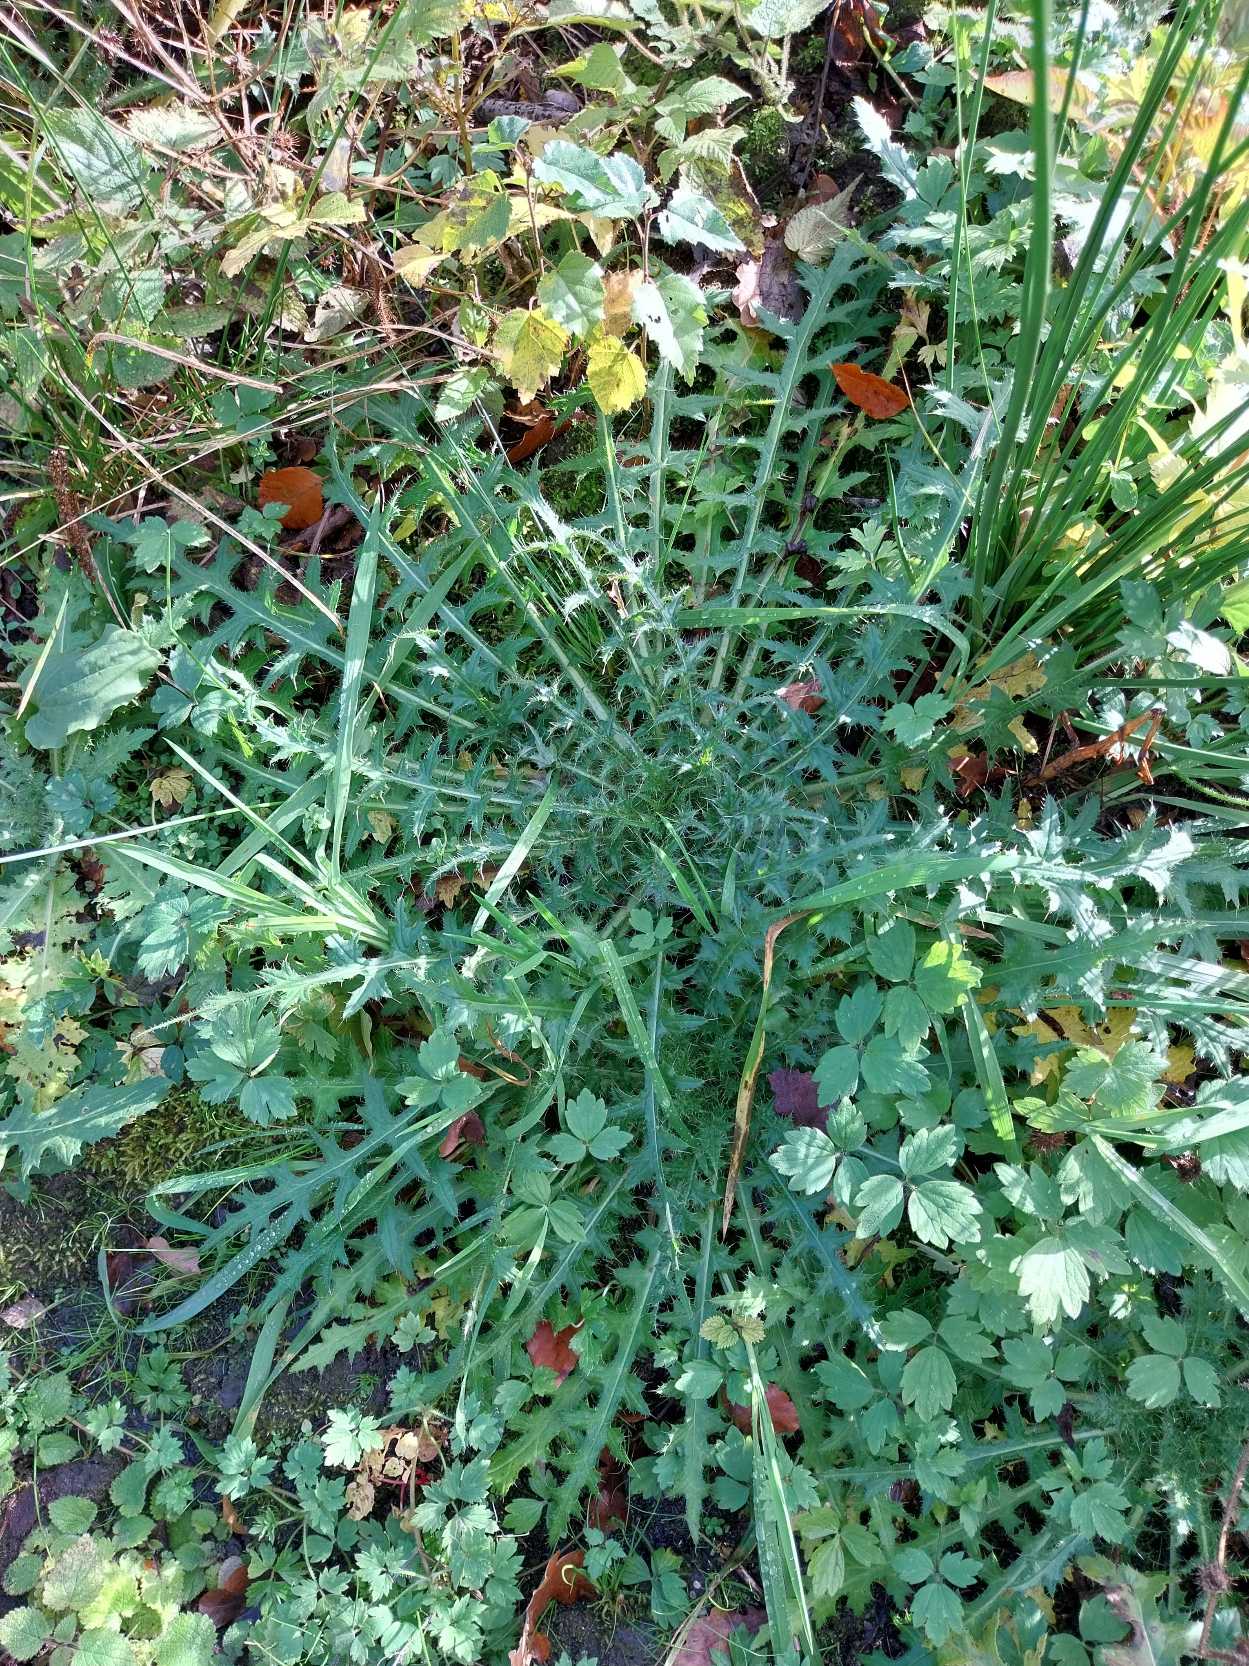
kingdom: Plantae
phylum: Tracheophyta
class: Magnoliopsida
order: Asterales
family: Asteraceae
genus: Cirsium
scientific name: Cirsium palustre
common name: Kær-tidsel
